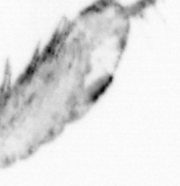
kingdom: Animalia
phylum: Arthropoda
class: Copepoda
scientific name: Copepoda
